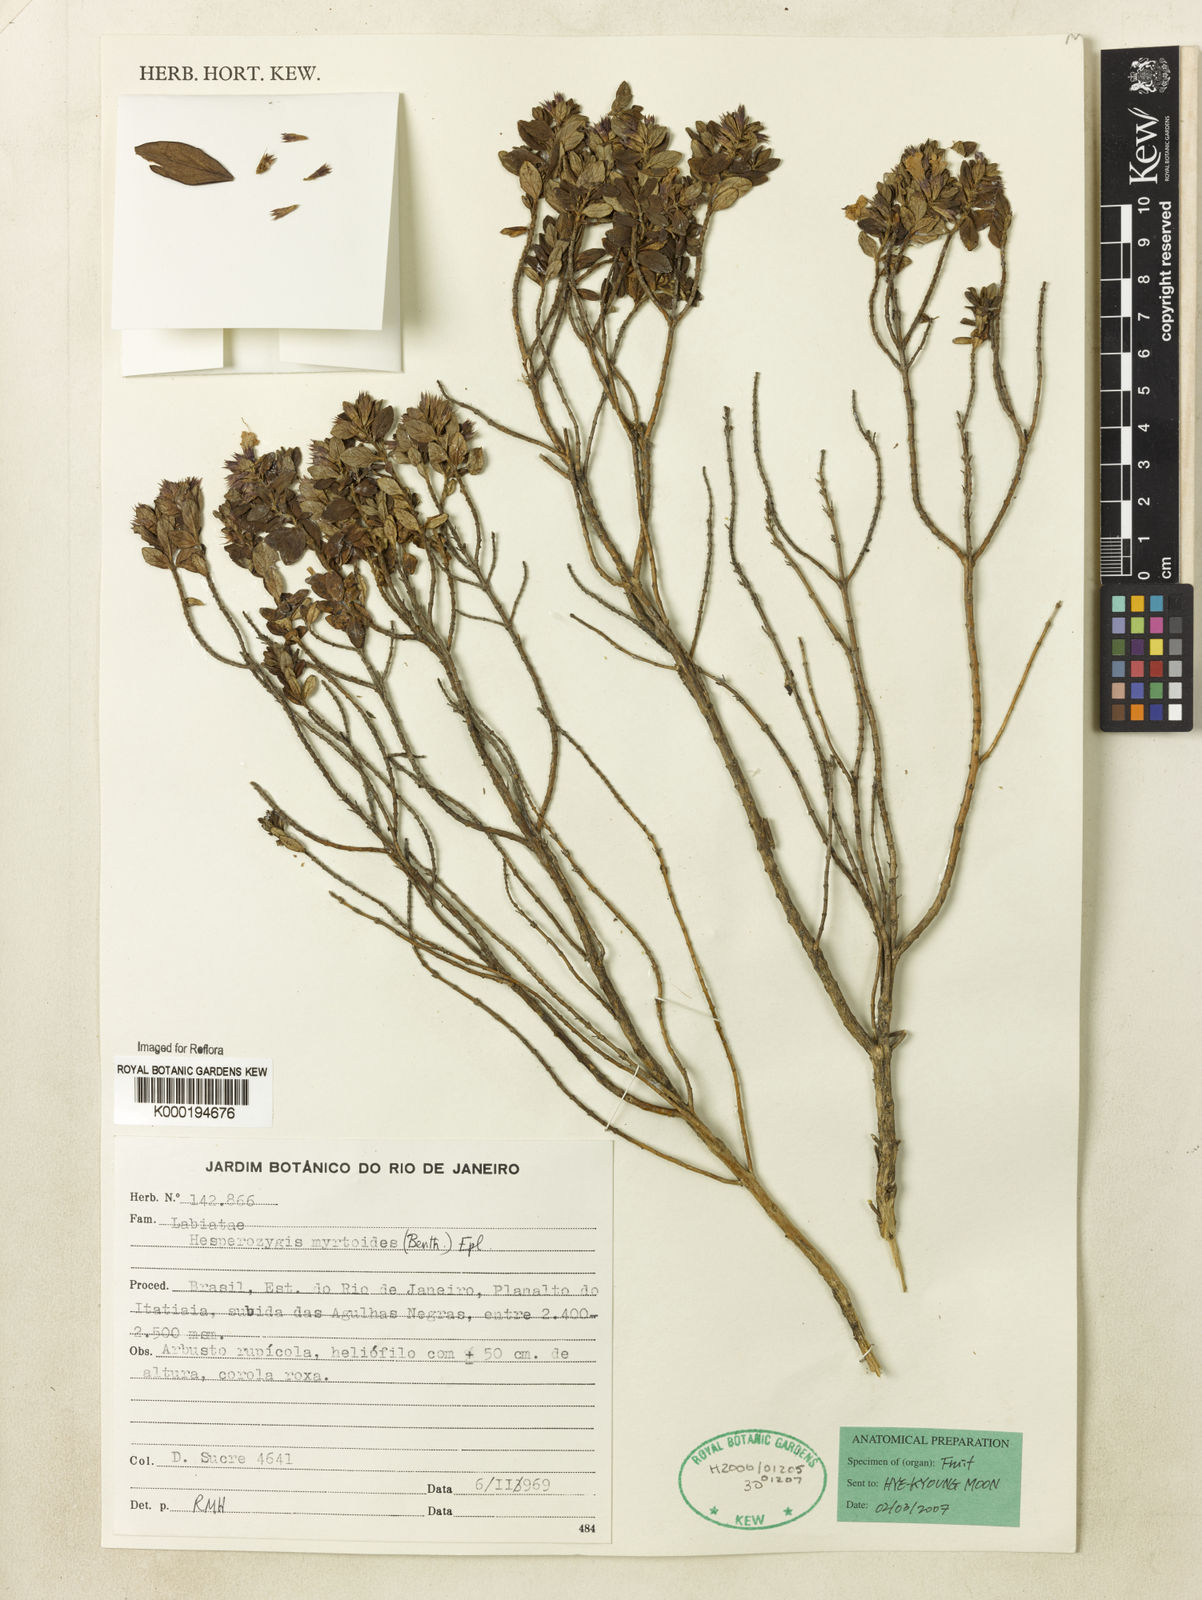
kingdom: Plantae
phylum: Tracheophyta
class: Magnoliopsida
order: Lamiales
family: Lamiaceae
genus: Hesperozygis
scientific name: Hesperozygis myrtoides
